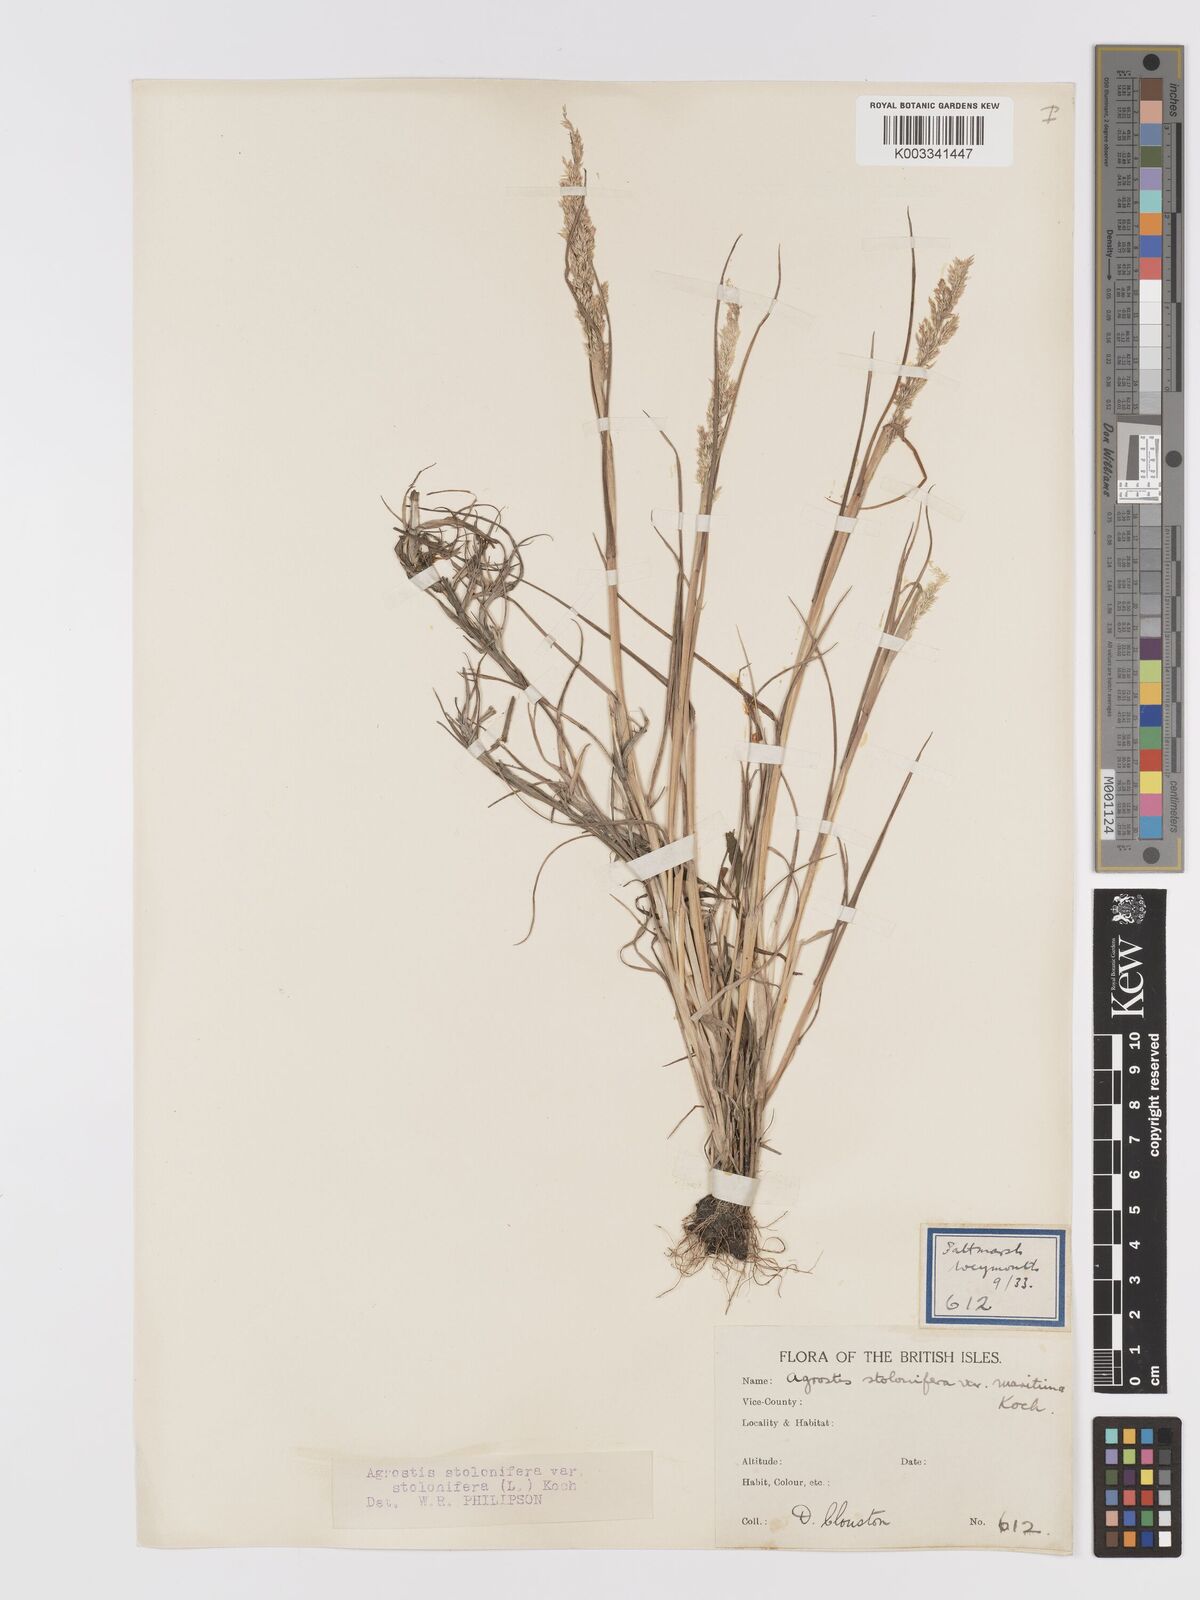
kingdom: Plantae
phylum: Tracheophyta
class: Liliopsida
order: Poales
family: Poaceae
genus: Agrostis
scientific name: Agrostis stolonifera
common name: Creeping bentgrass
